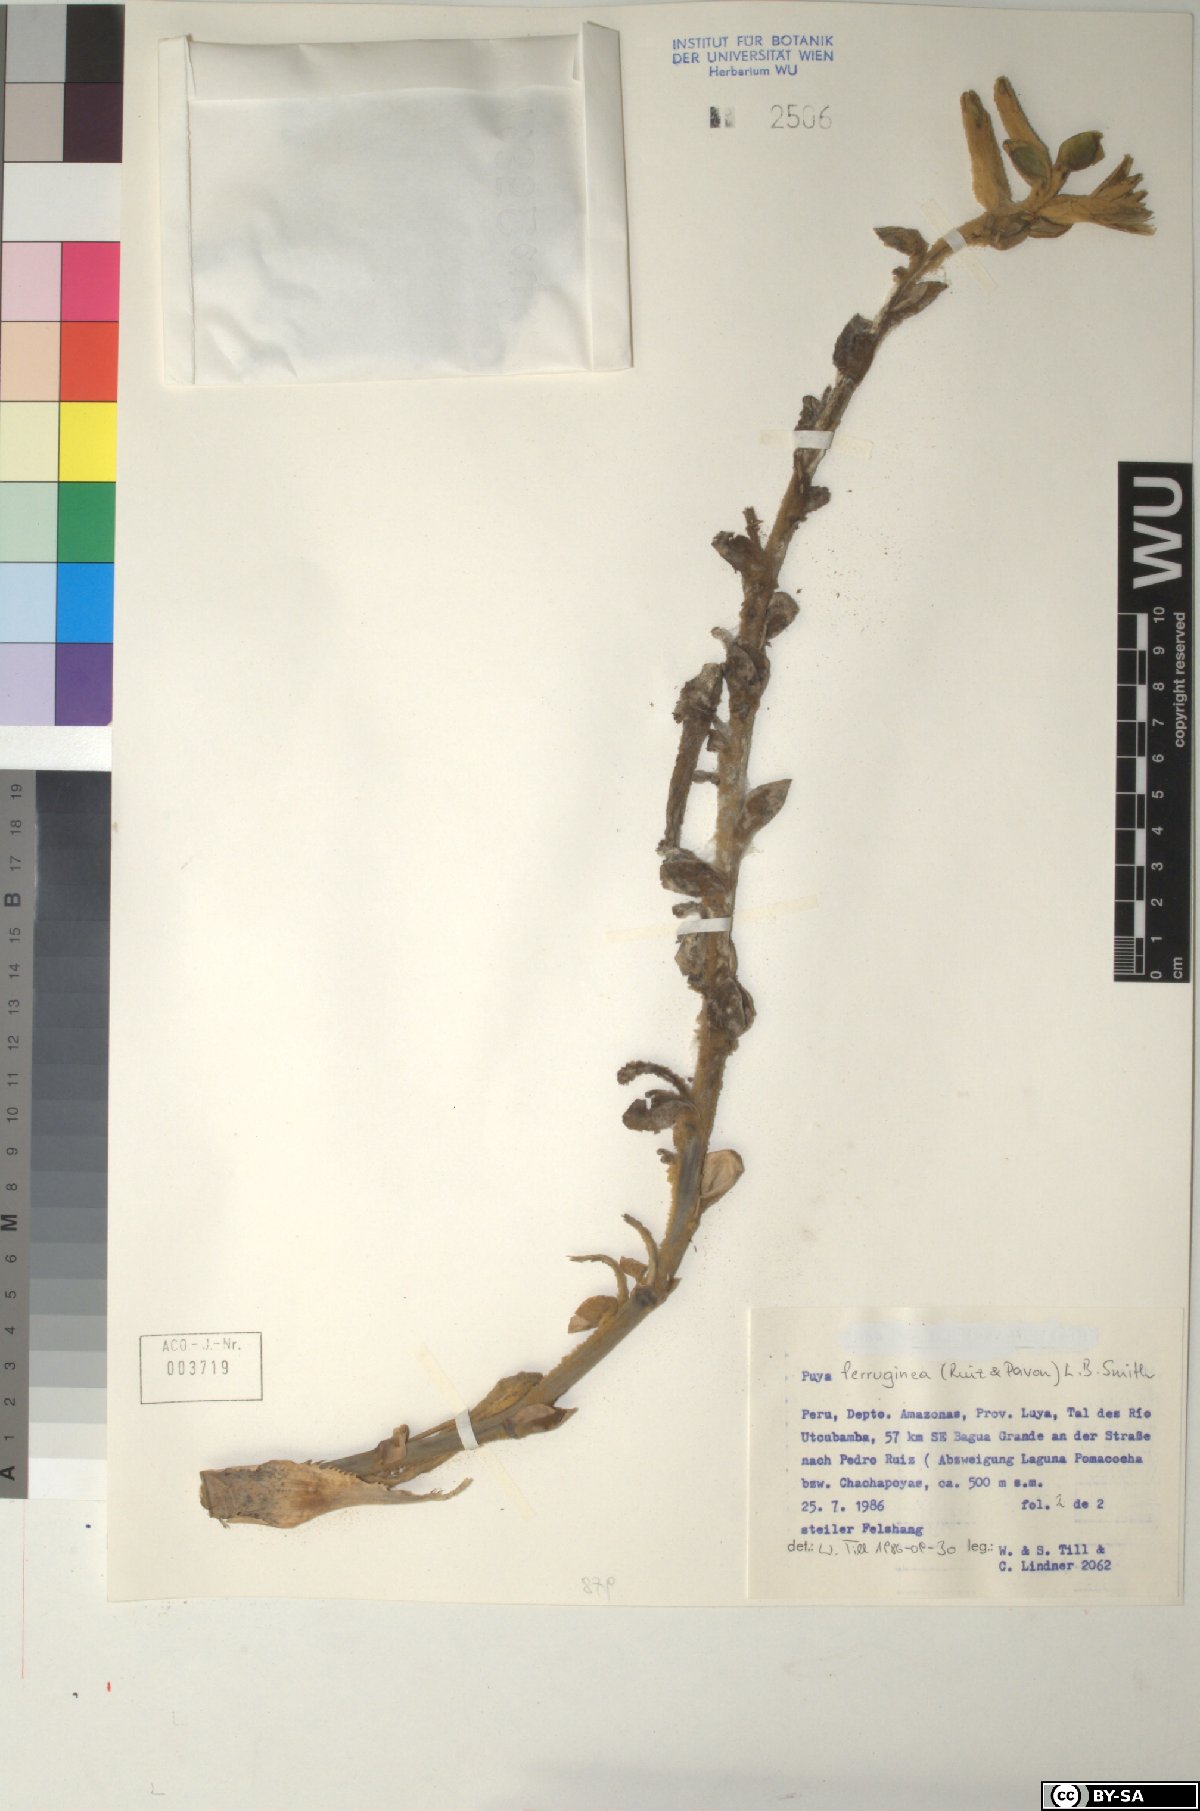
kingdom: Plantae
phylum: Tracheophyta
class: Liliopsida
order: Poales
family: Bromeliaceae
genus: Puya
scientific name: Puya ferruginea
